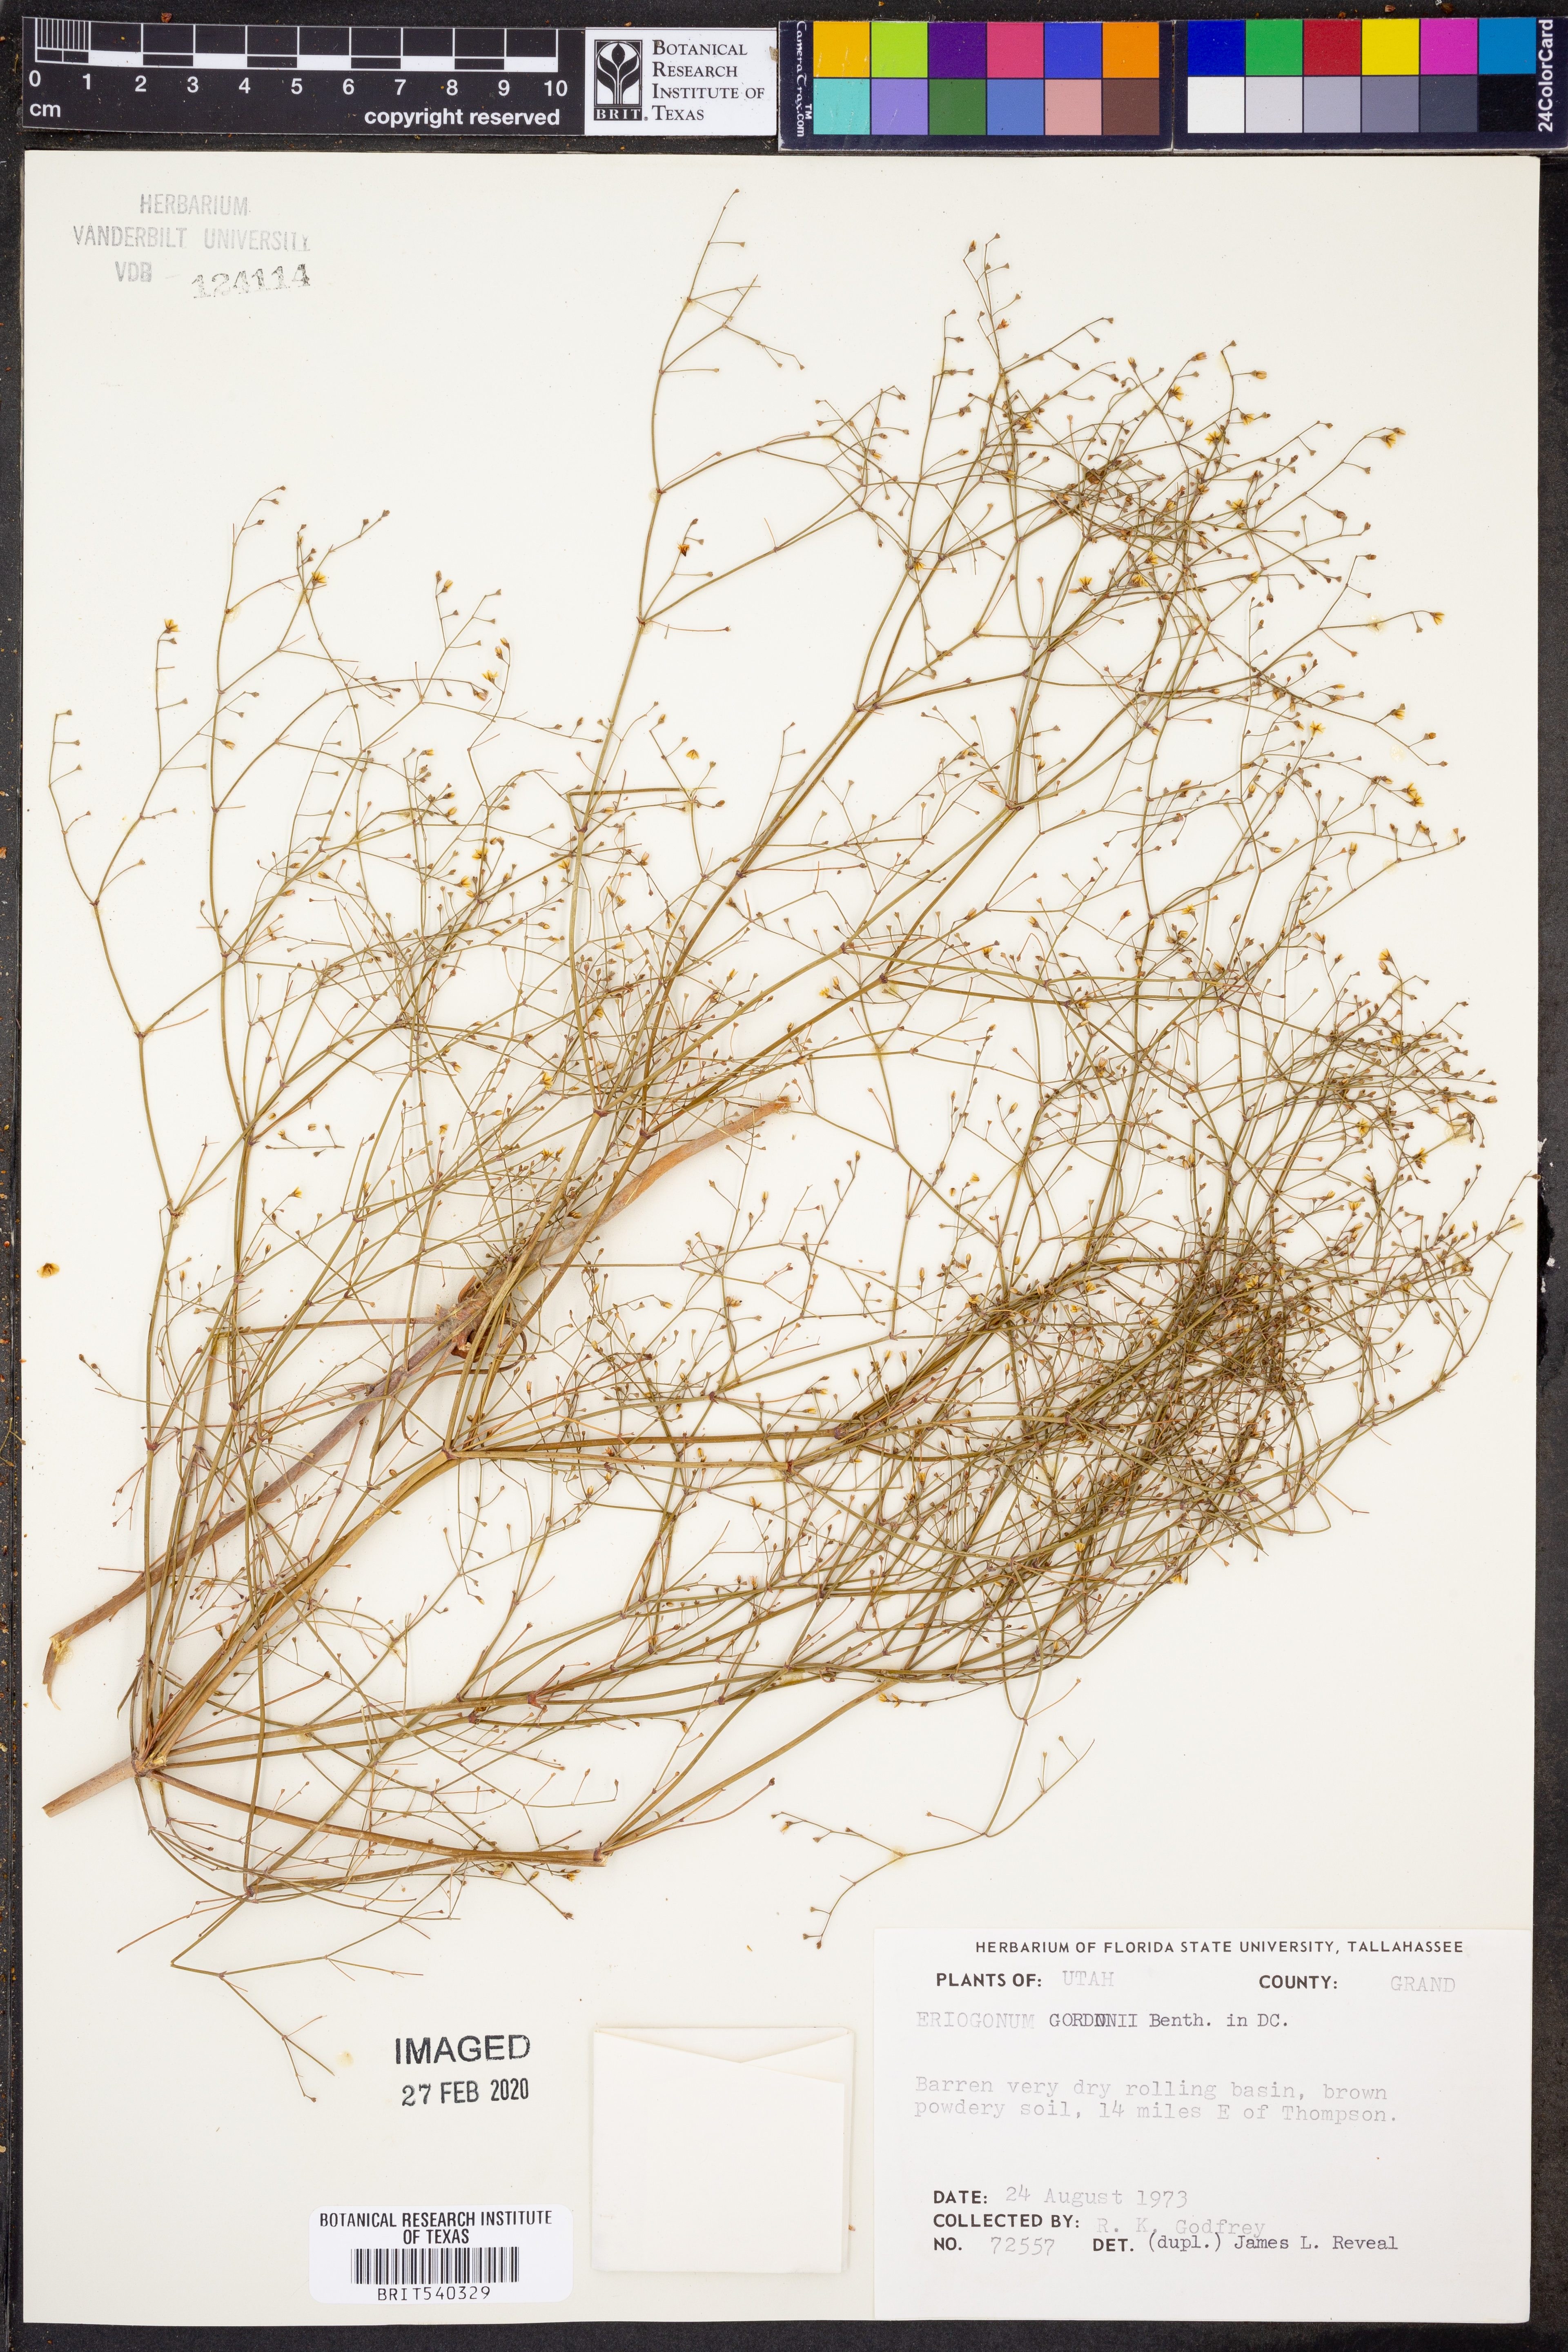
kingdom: Plantae
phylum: Tracheophyta
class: Magnoliopsida
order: Caryophyllales
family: Polygonaceae
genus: Eriogonum
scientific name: Eriogonum gordonii
